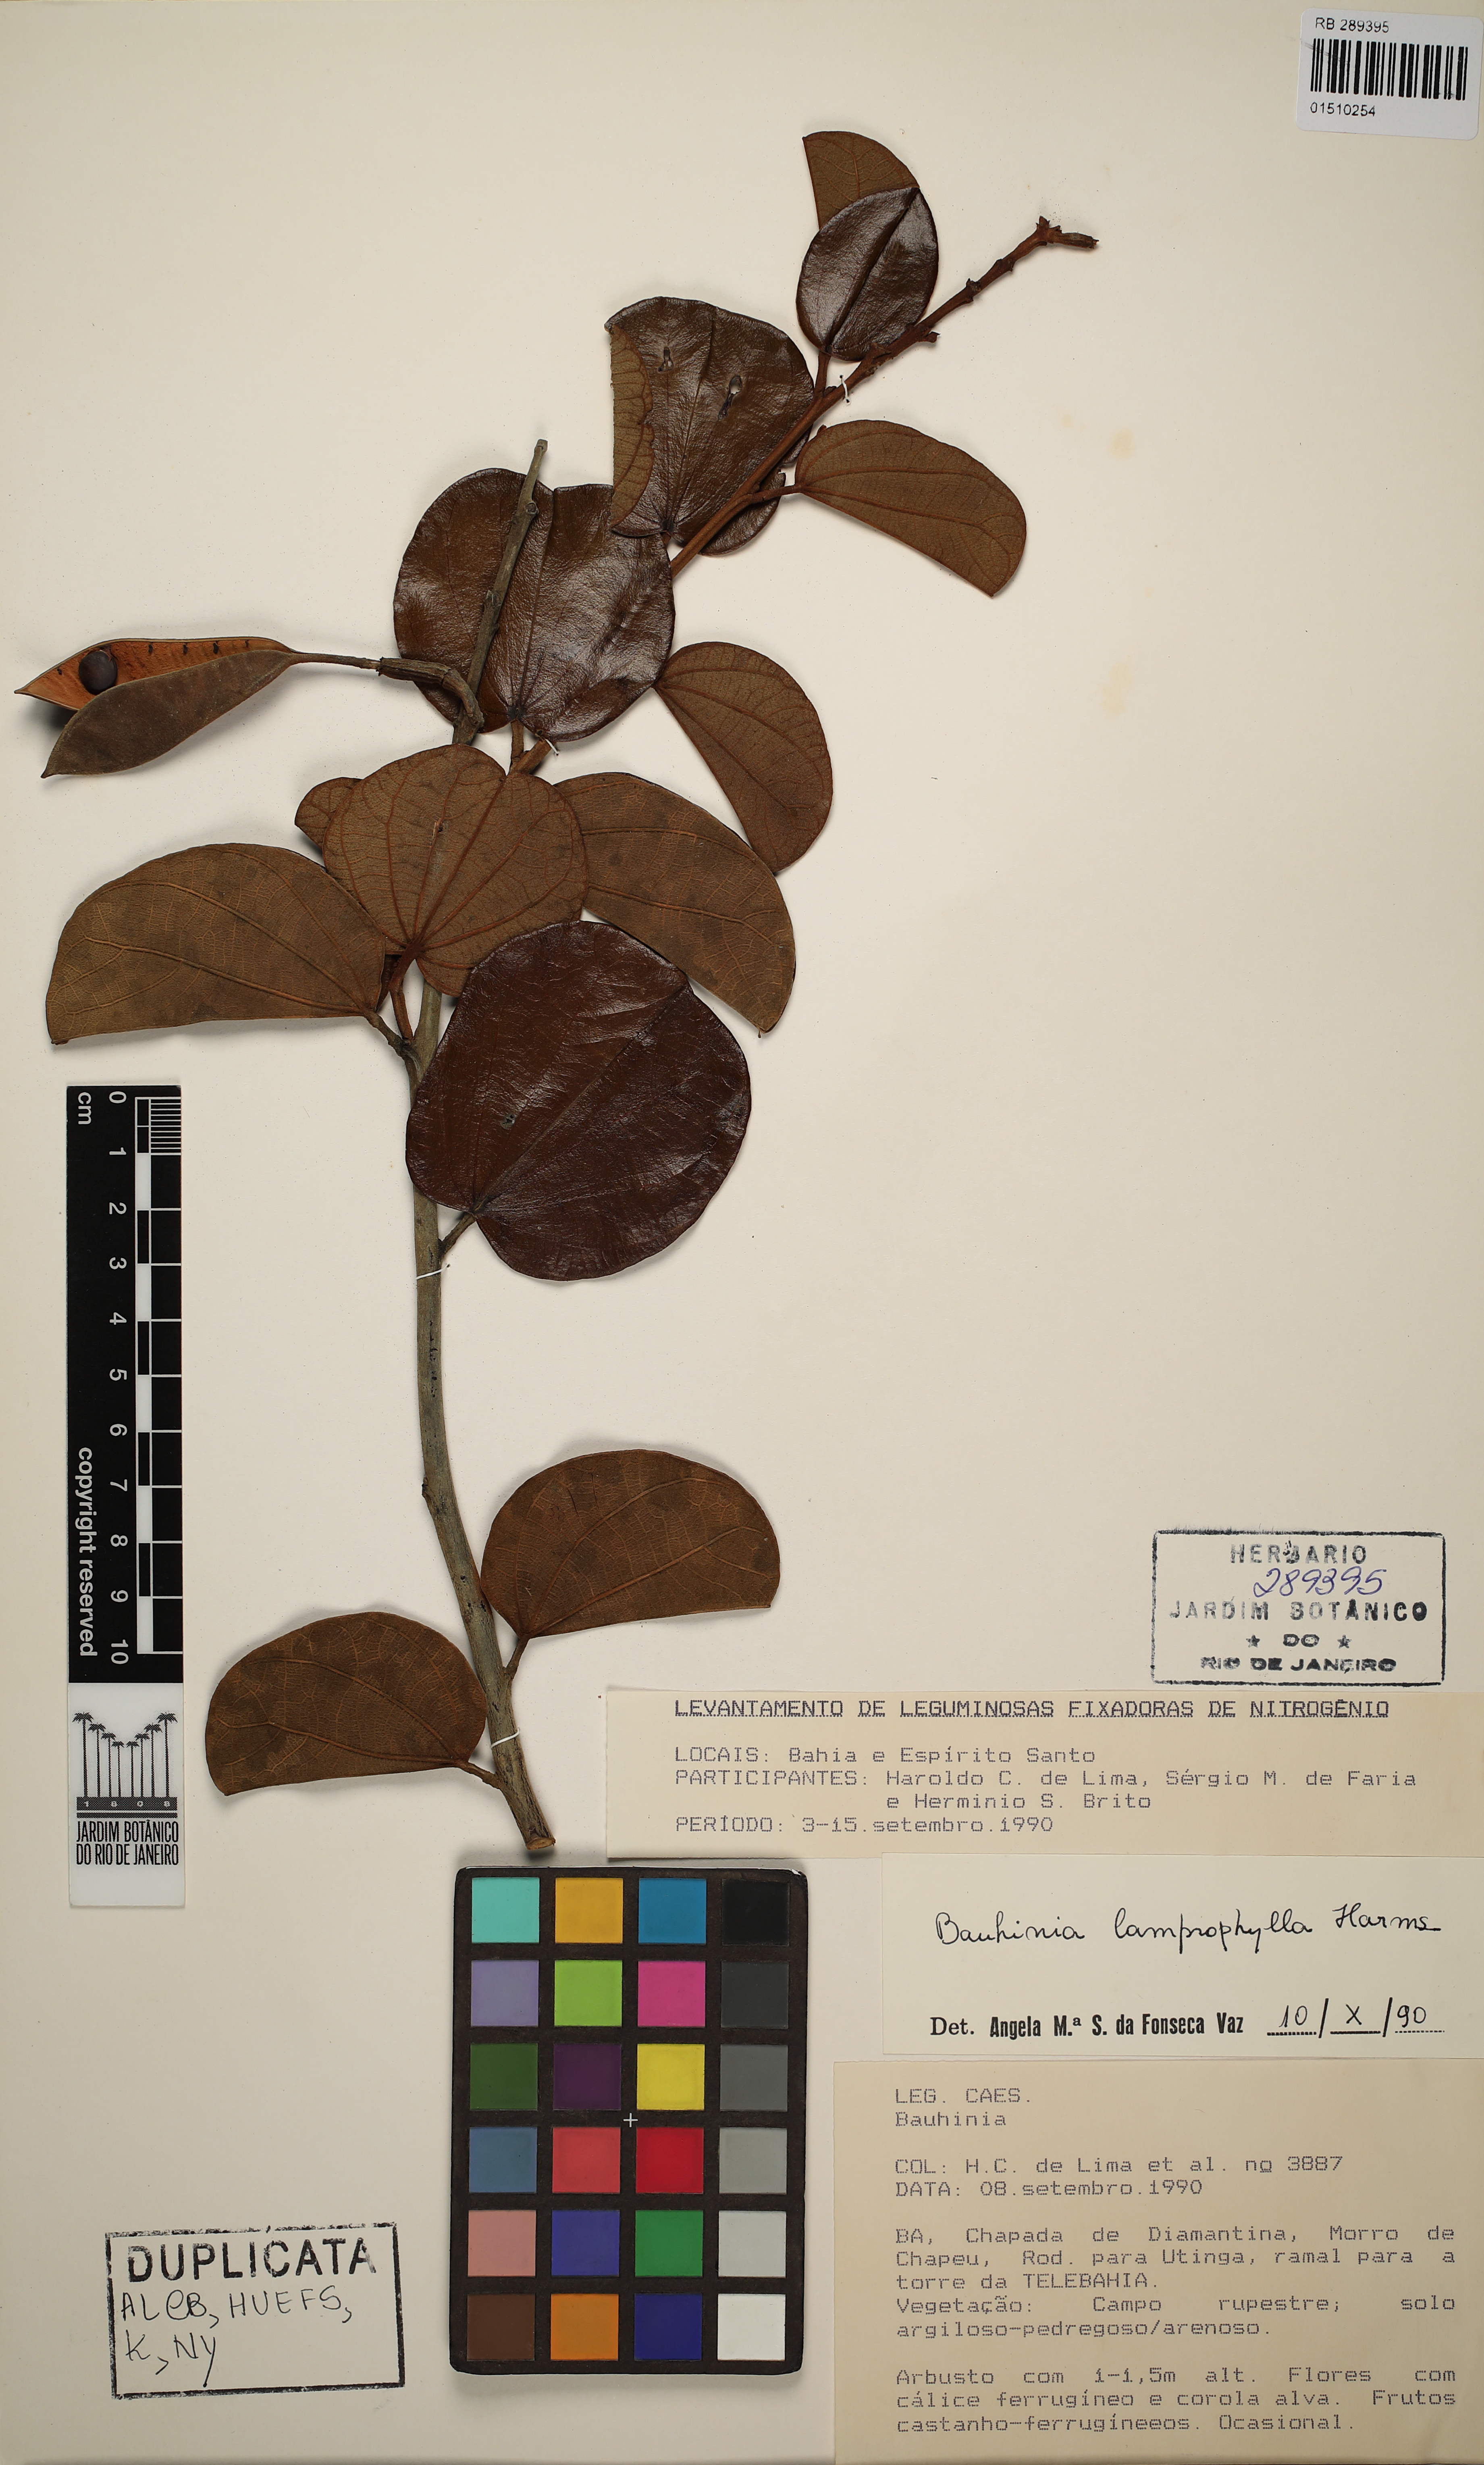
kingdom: Plantae
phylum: Tracheophyta
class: Magnoliopsida
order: Fabales
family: Fabaceae
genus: Bauhinia
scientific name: Bauhinia acuruana
